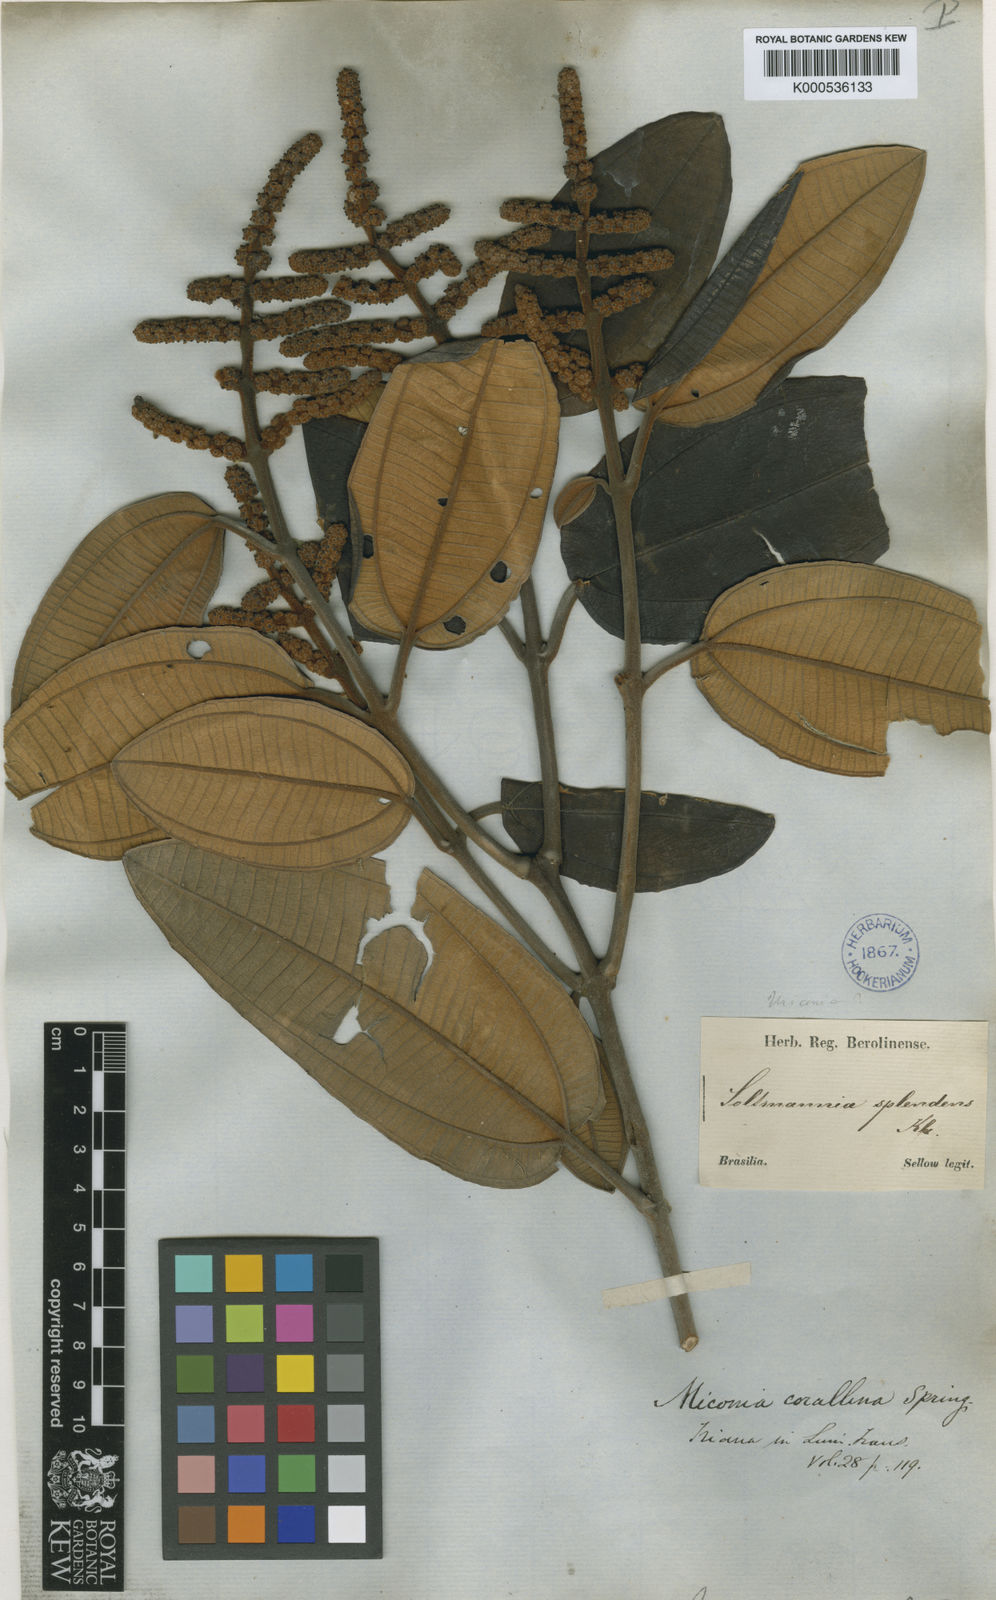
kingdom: Plantae
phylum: Tracheophyta
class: Magnoliopsida
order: Myrtales
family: Melastomataceae
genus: Miconia
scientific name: Miconia
